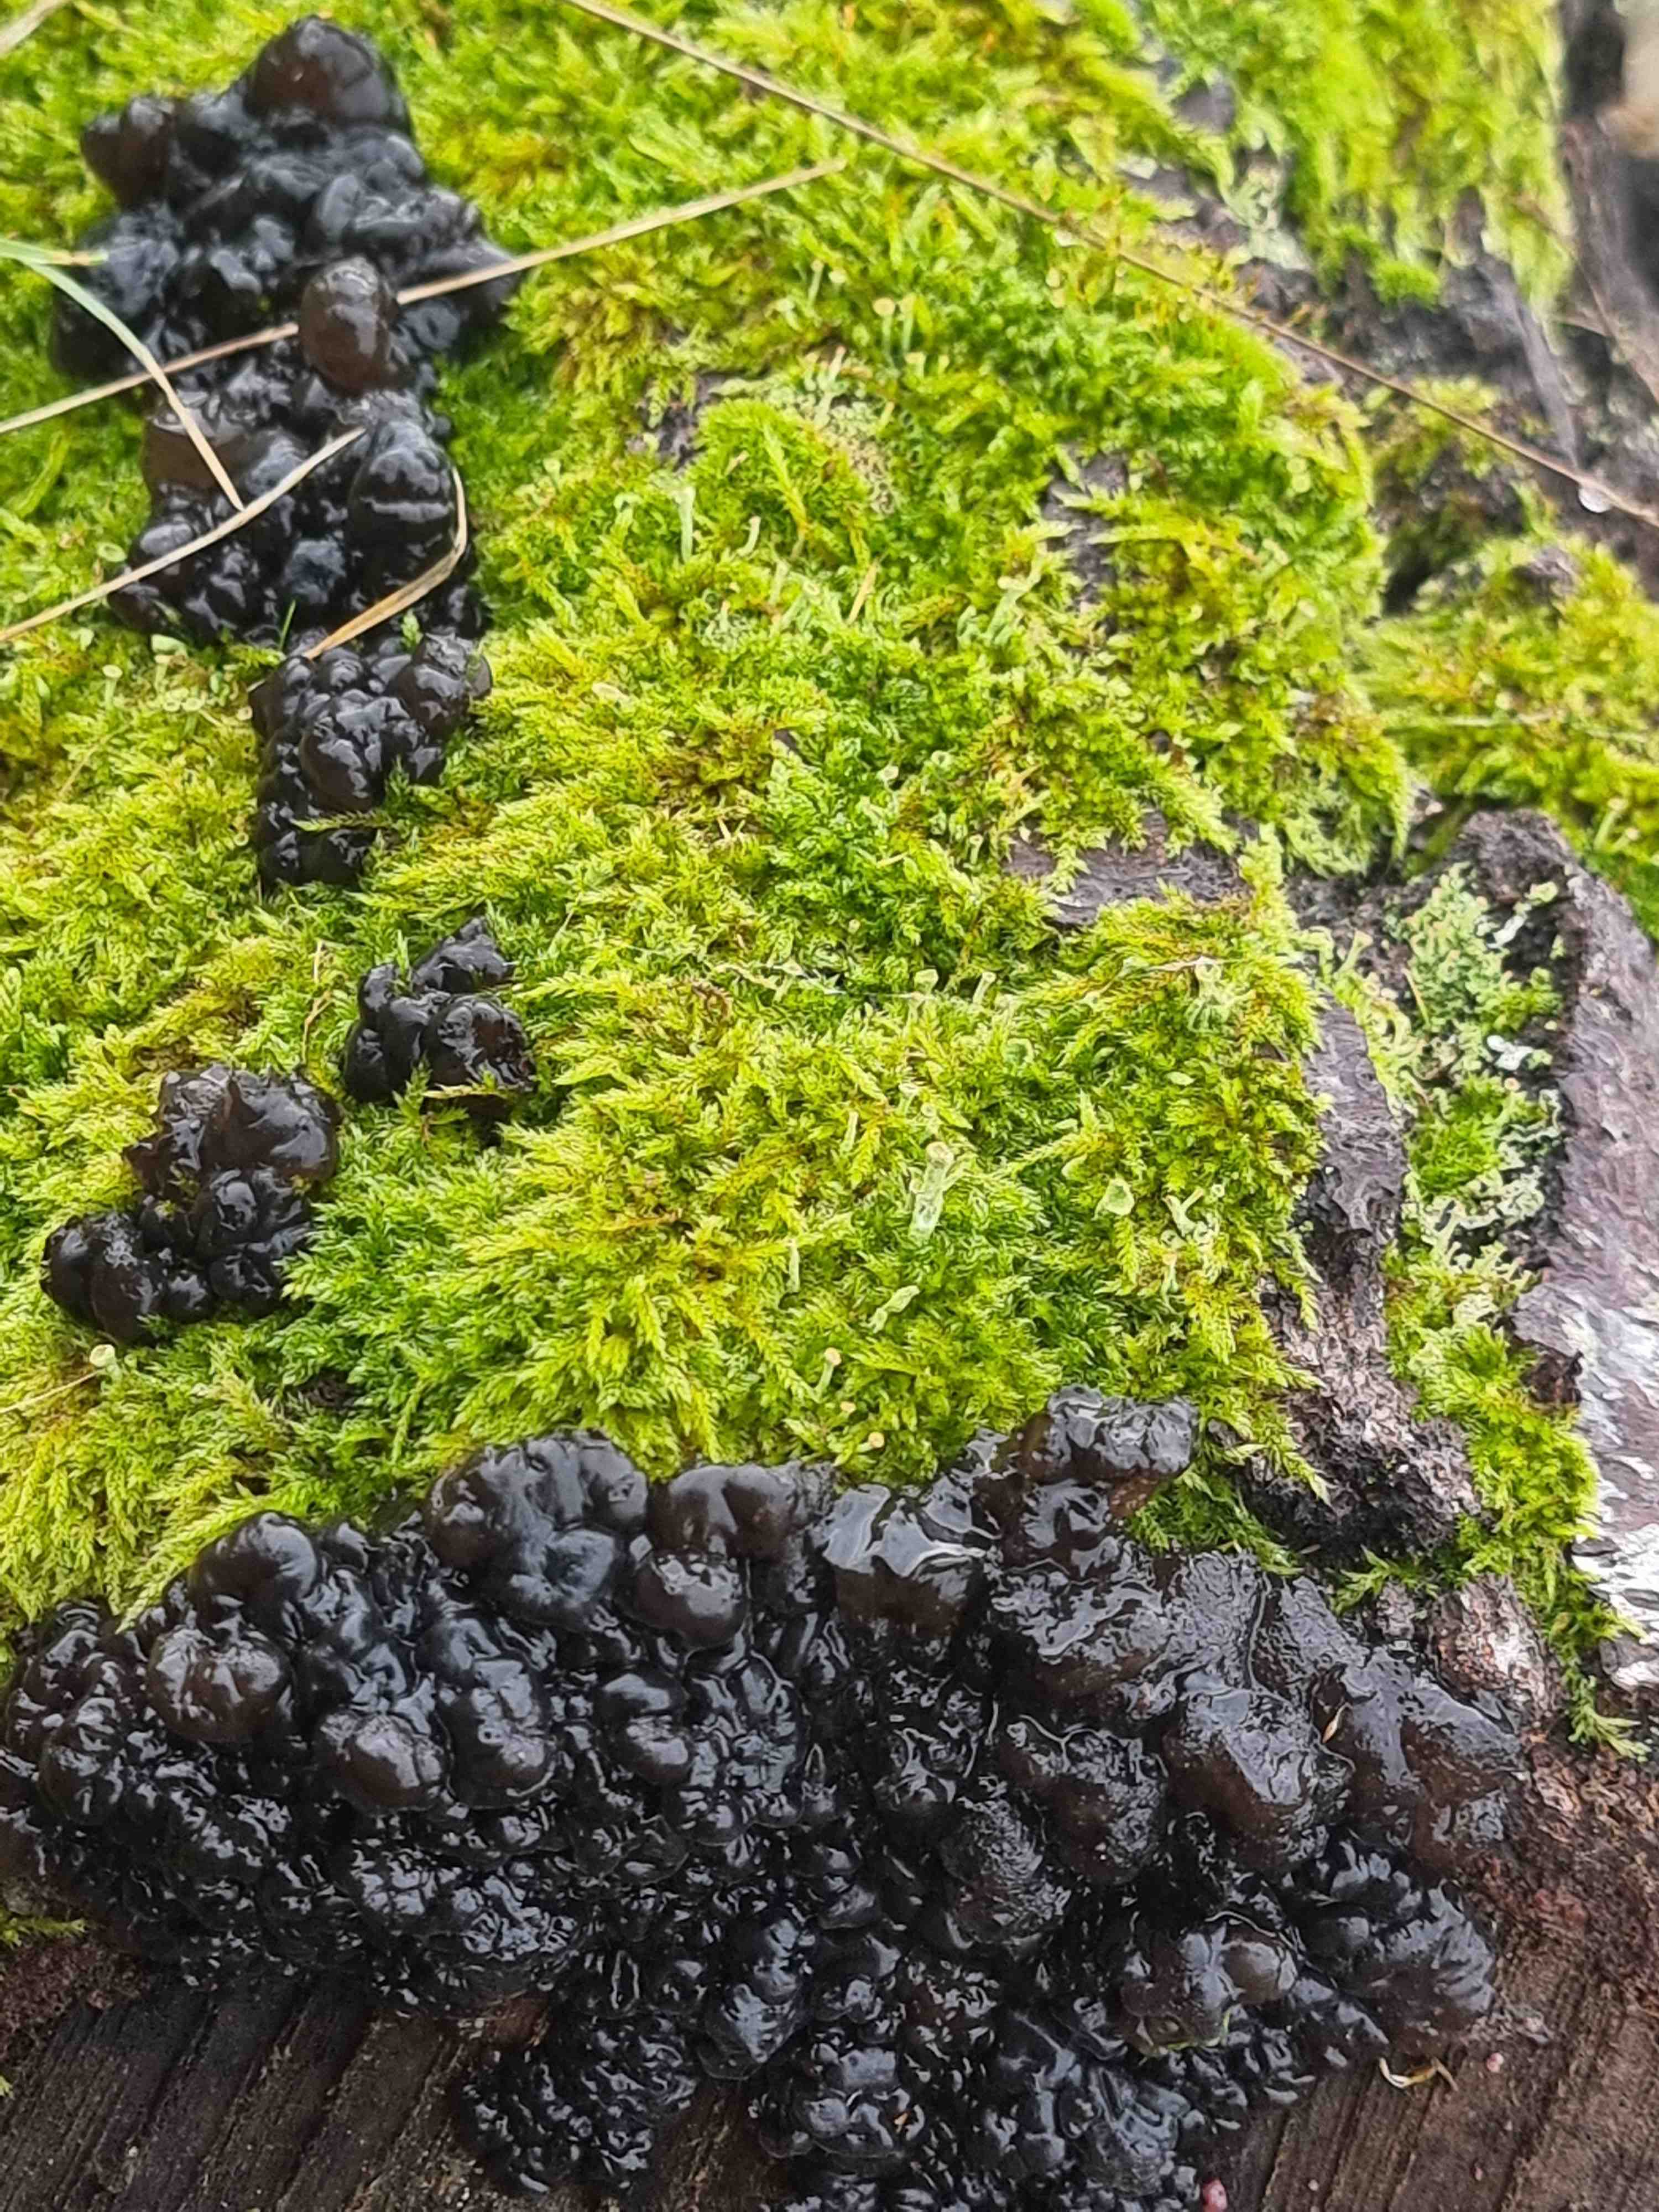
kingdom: Fungi
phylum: Basidiomycota
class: Agaricomycetes
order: Auriculariales
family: Auriculariaceae
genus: Exidia
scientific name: Exidia nigricans
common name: almindelig bævretop
